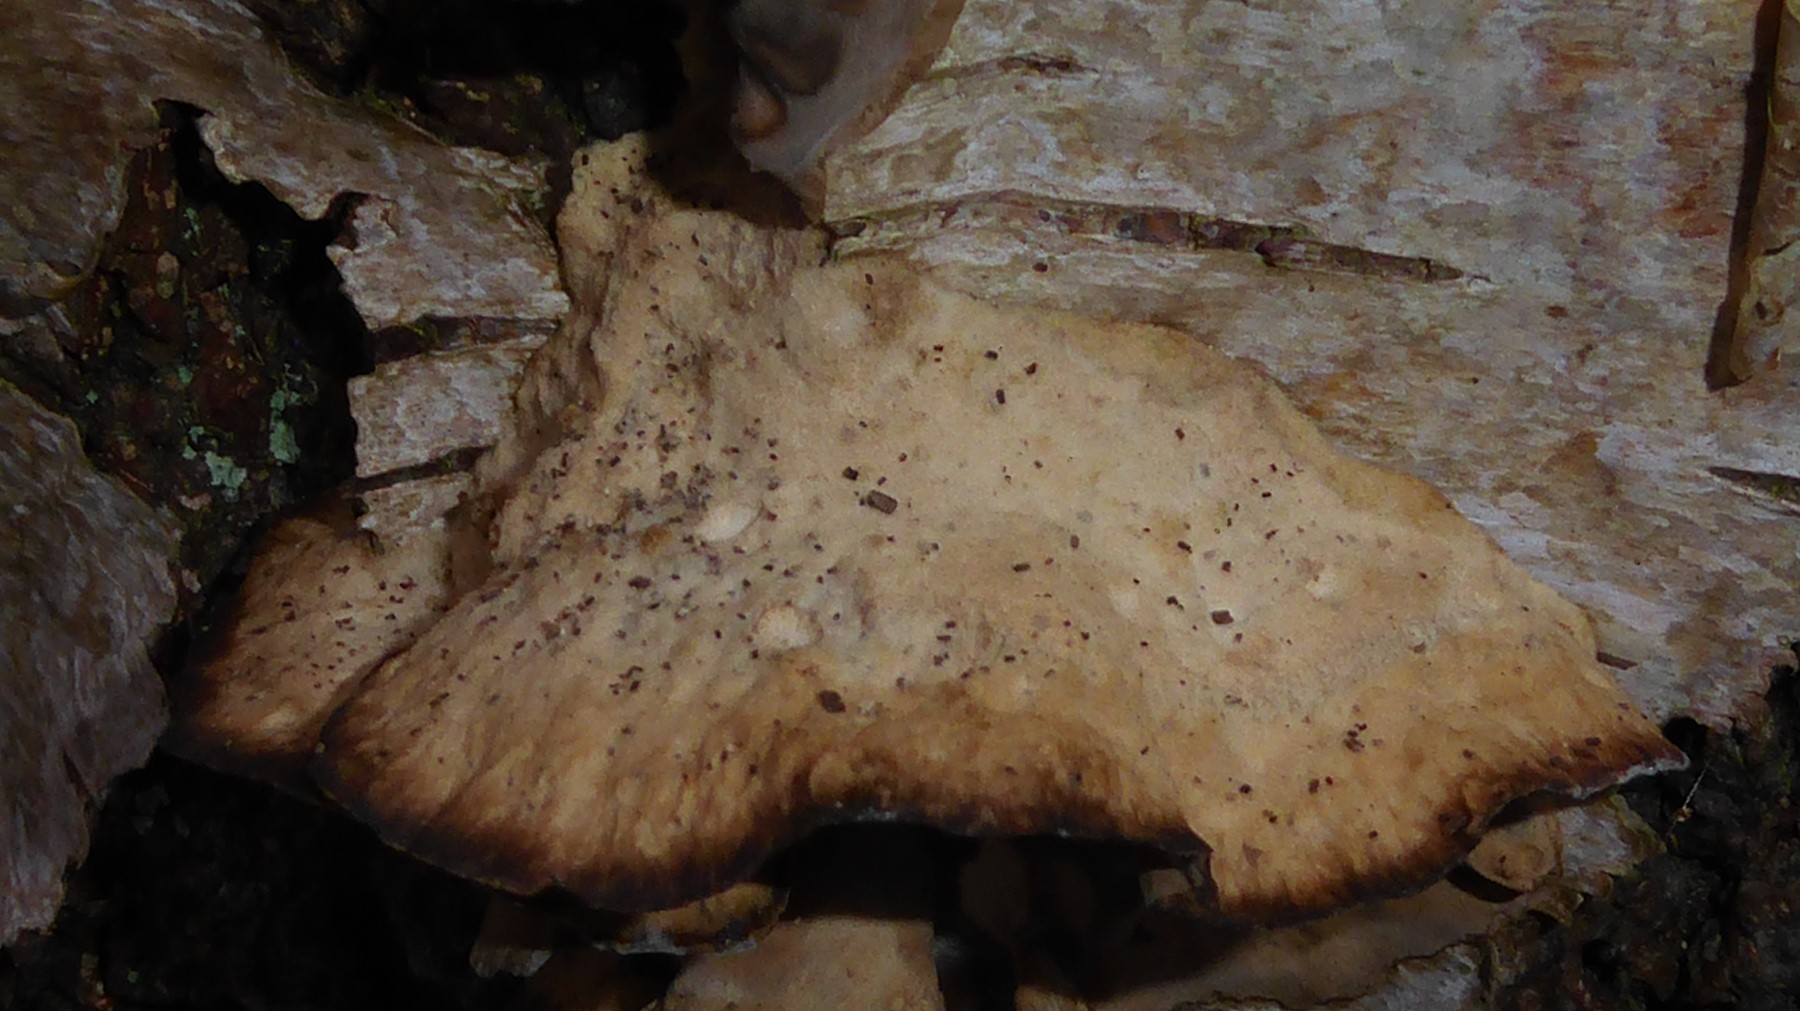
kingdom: Fungi
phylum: Basidiomycota
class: Agaricomycetes
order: Polyporales
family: Phanerochaetaceae
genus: Bjerkandera
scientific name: Bjerkandera adusta
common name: sveden sodporesvamp
